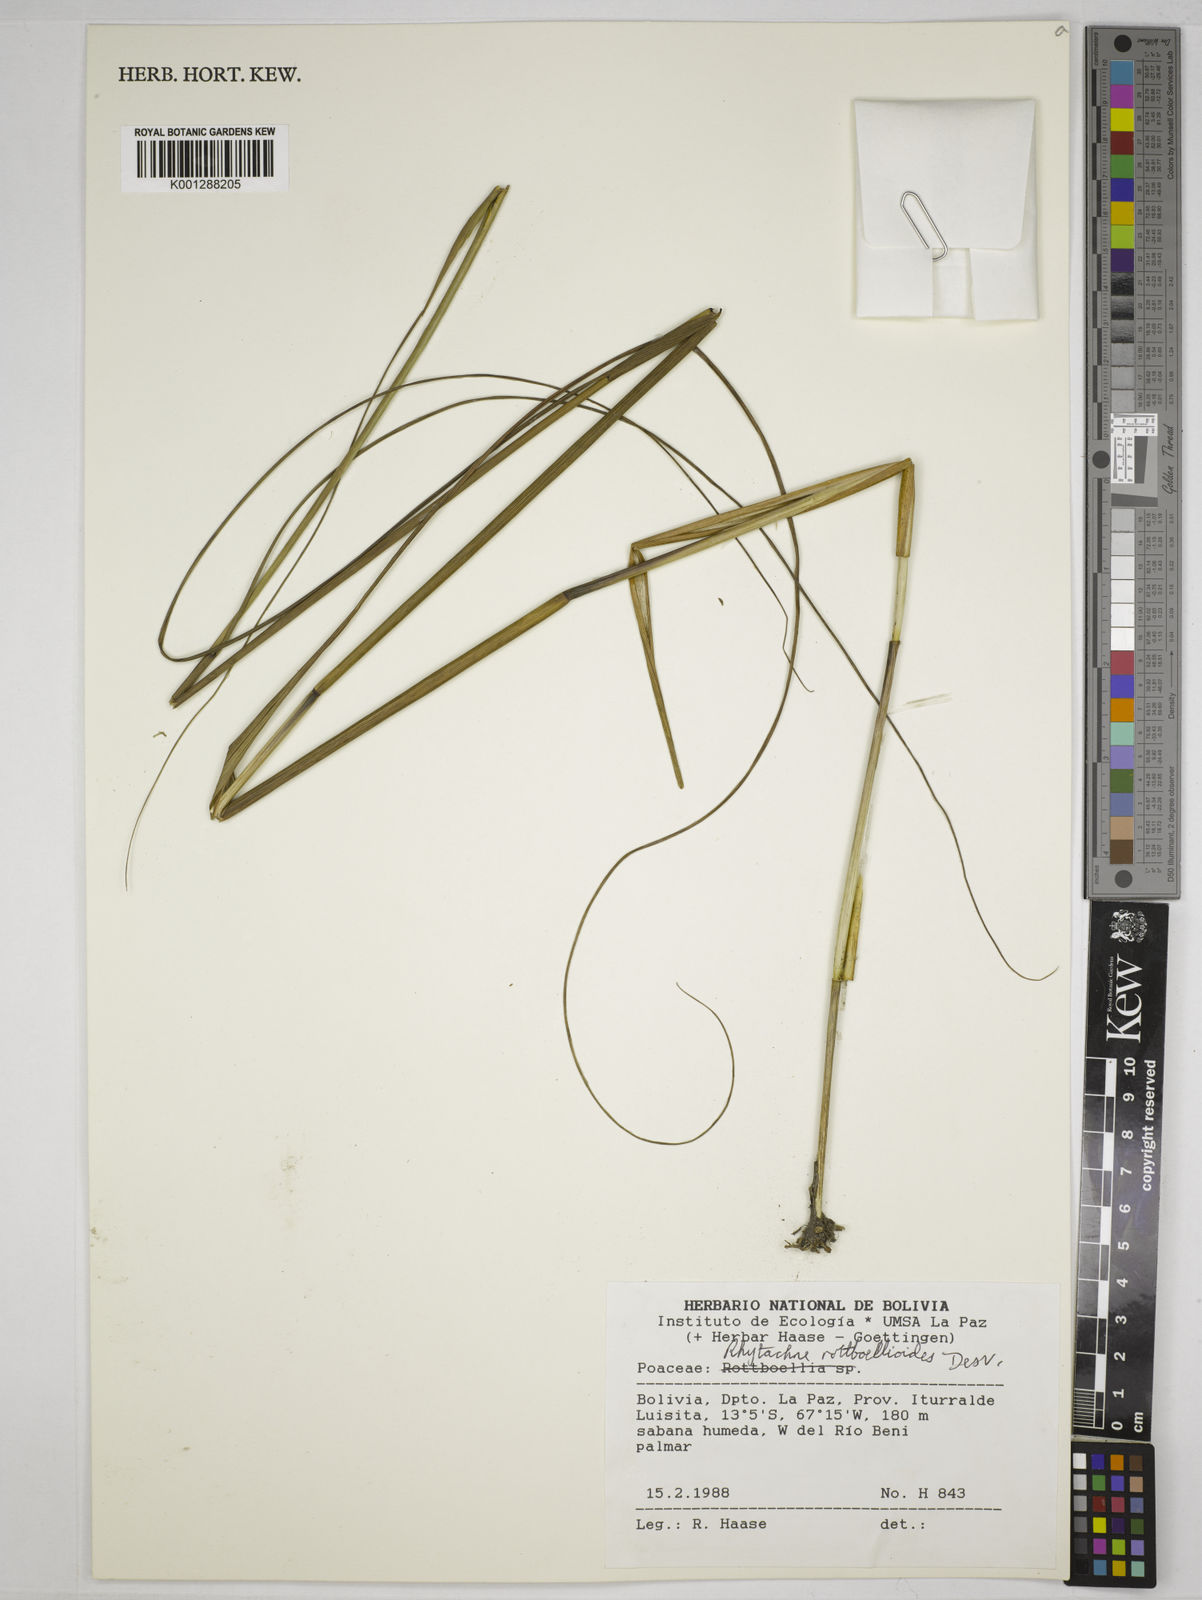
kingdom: Plantae
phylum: Tracheophyta
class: Liliopsida
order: Poales
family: Poaceae
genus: Rhytachne
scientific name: Rhytachne rottboellioides
